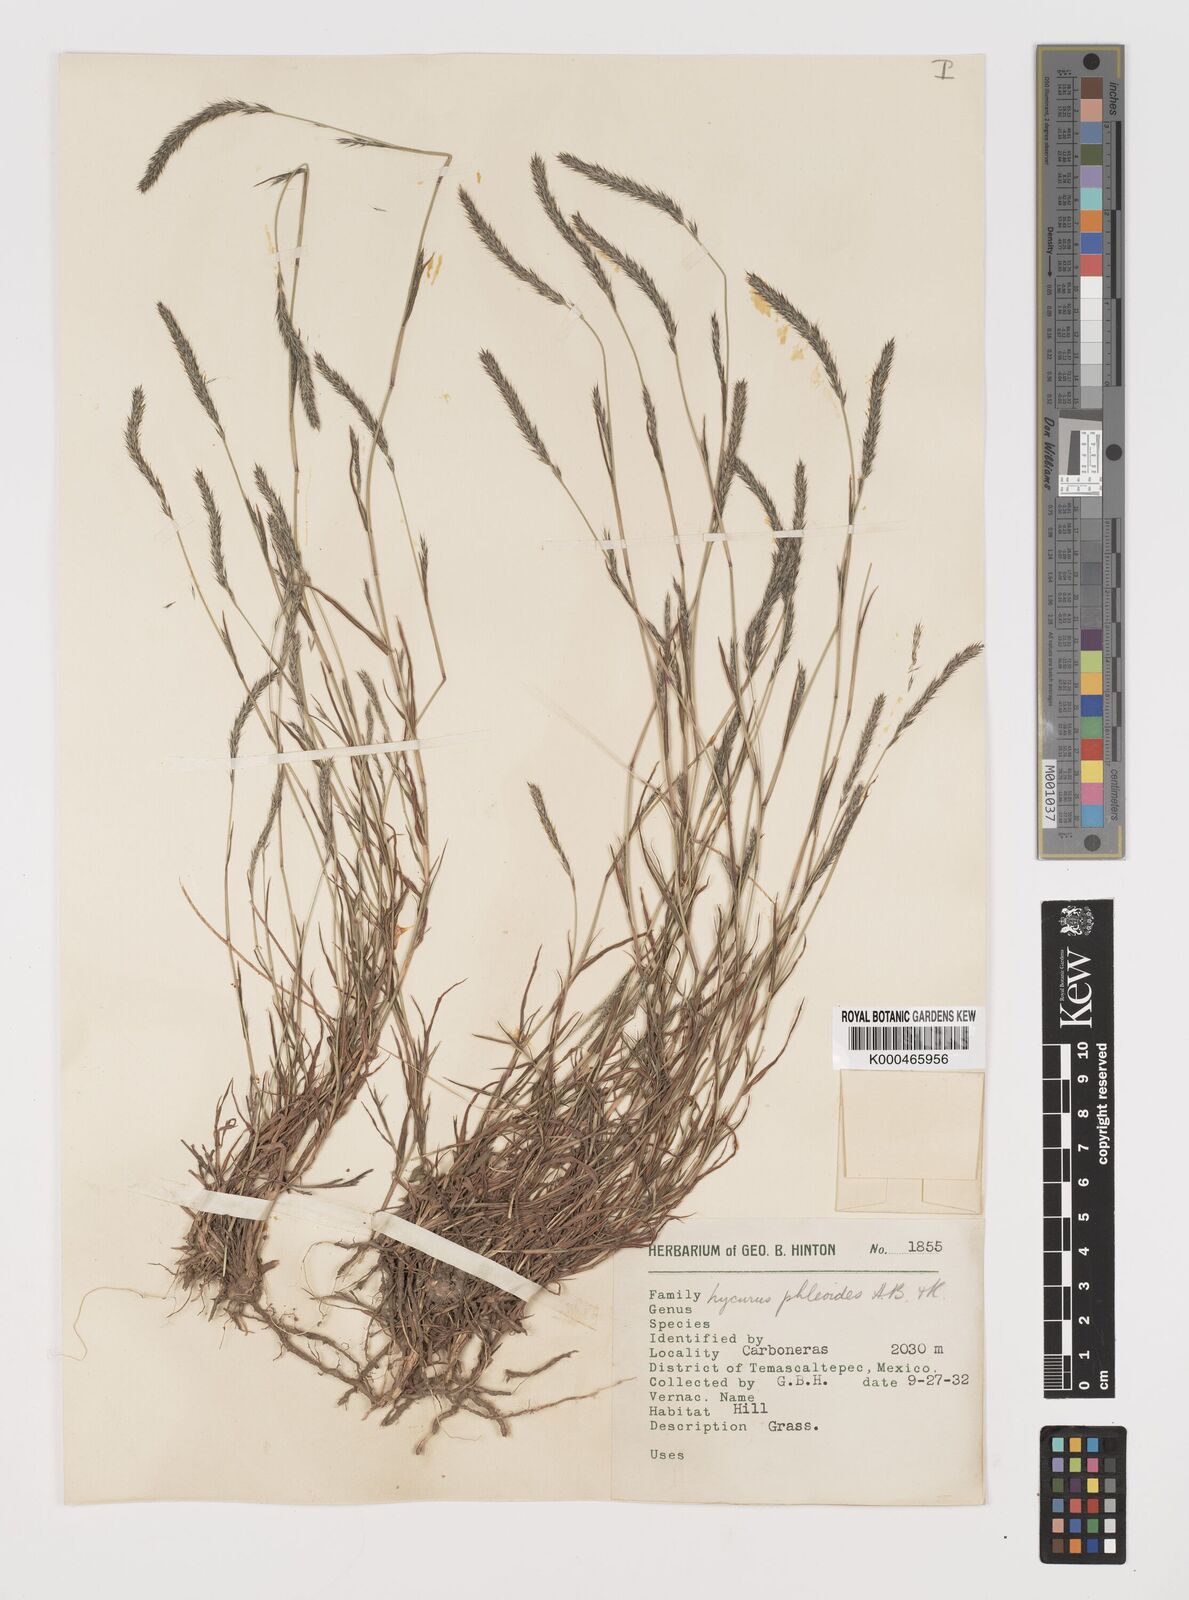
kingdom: Plantae
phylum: Tracheophyta
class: Liliopsida
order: Poales
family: Poaceae
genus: Muhlenbergia
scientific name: Muhlenbergia phleoides
